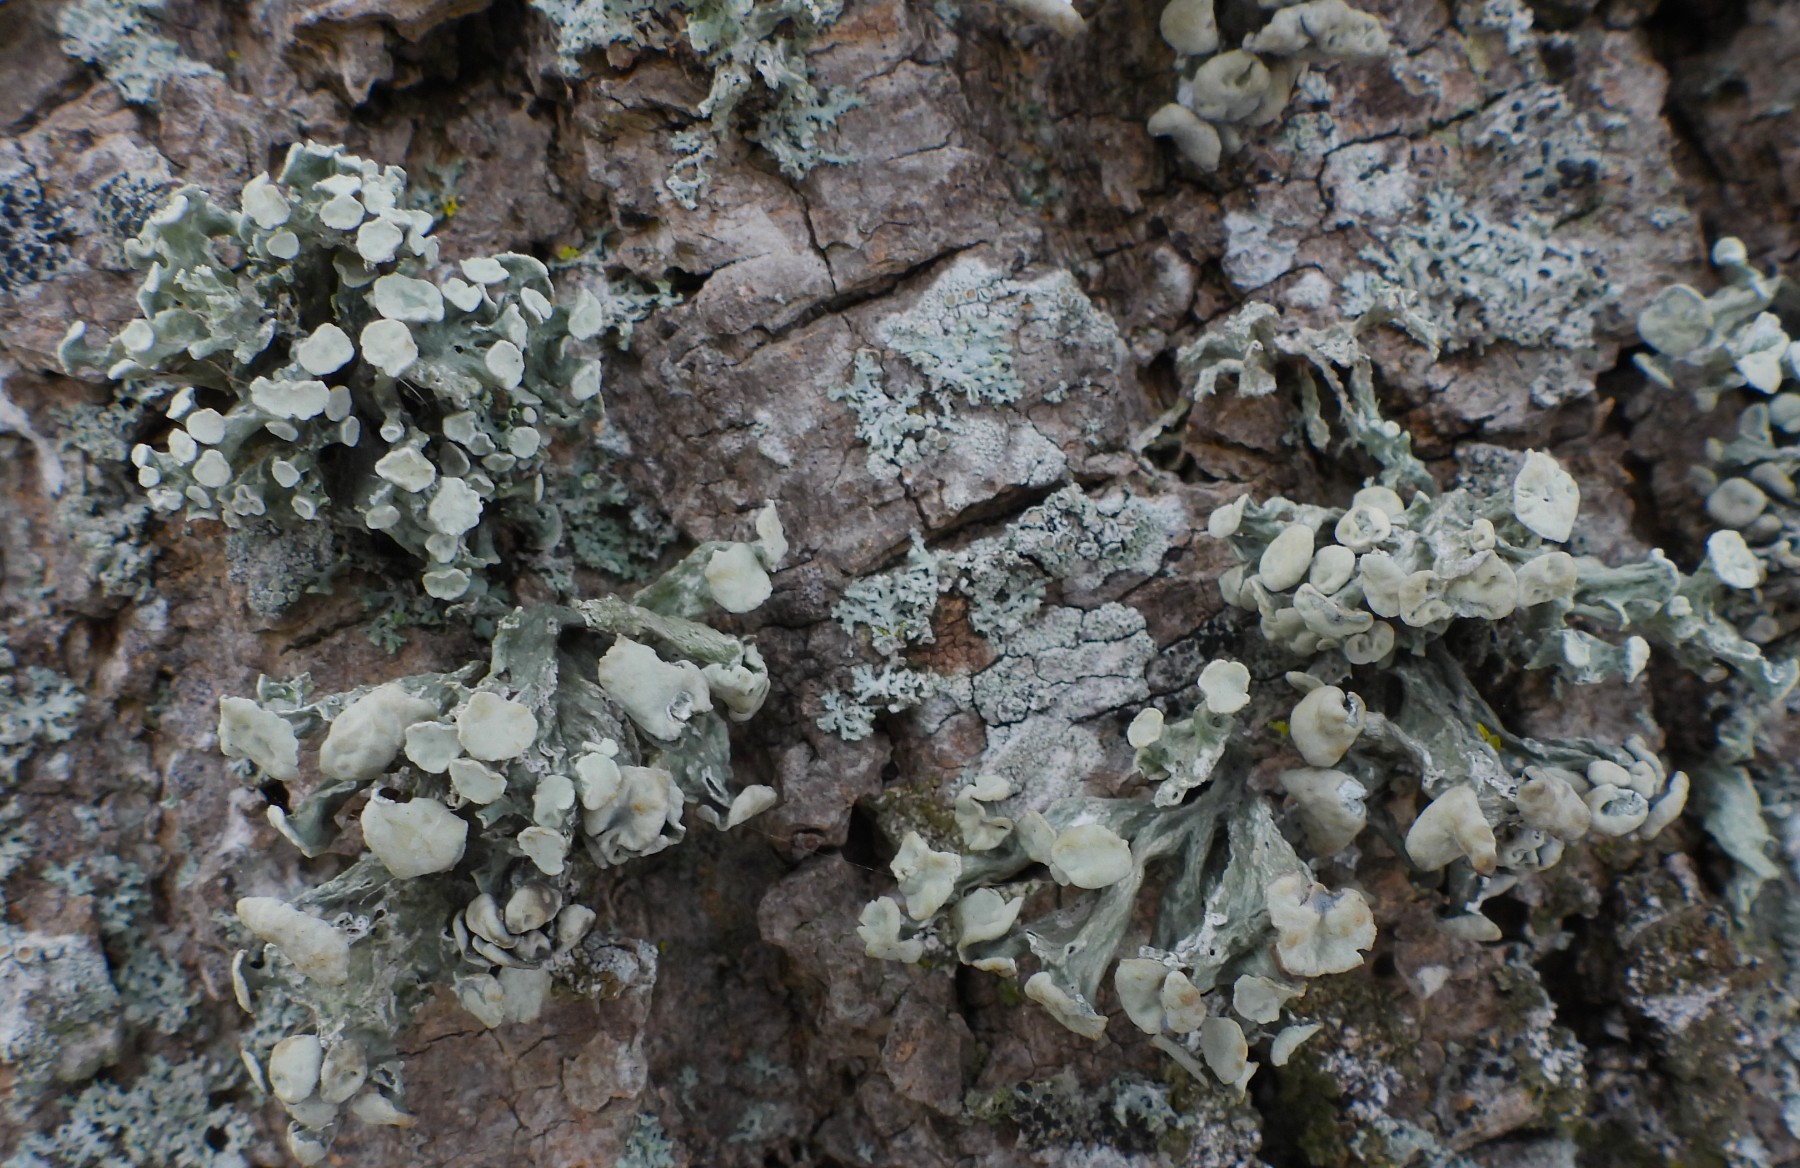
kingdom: Fungi
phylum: Ascomycota
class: Lecanoromycetes
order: Lecanorales
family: Ramalinaceae
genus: Ramalina
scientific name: Ramalina fastigiata
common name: tue-grenlav
